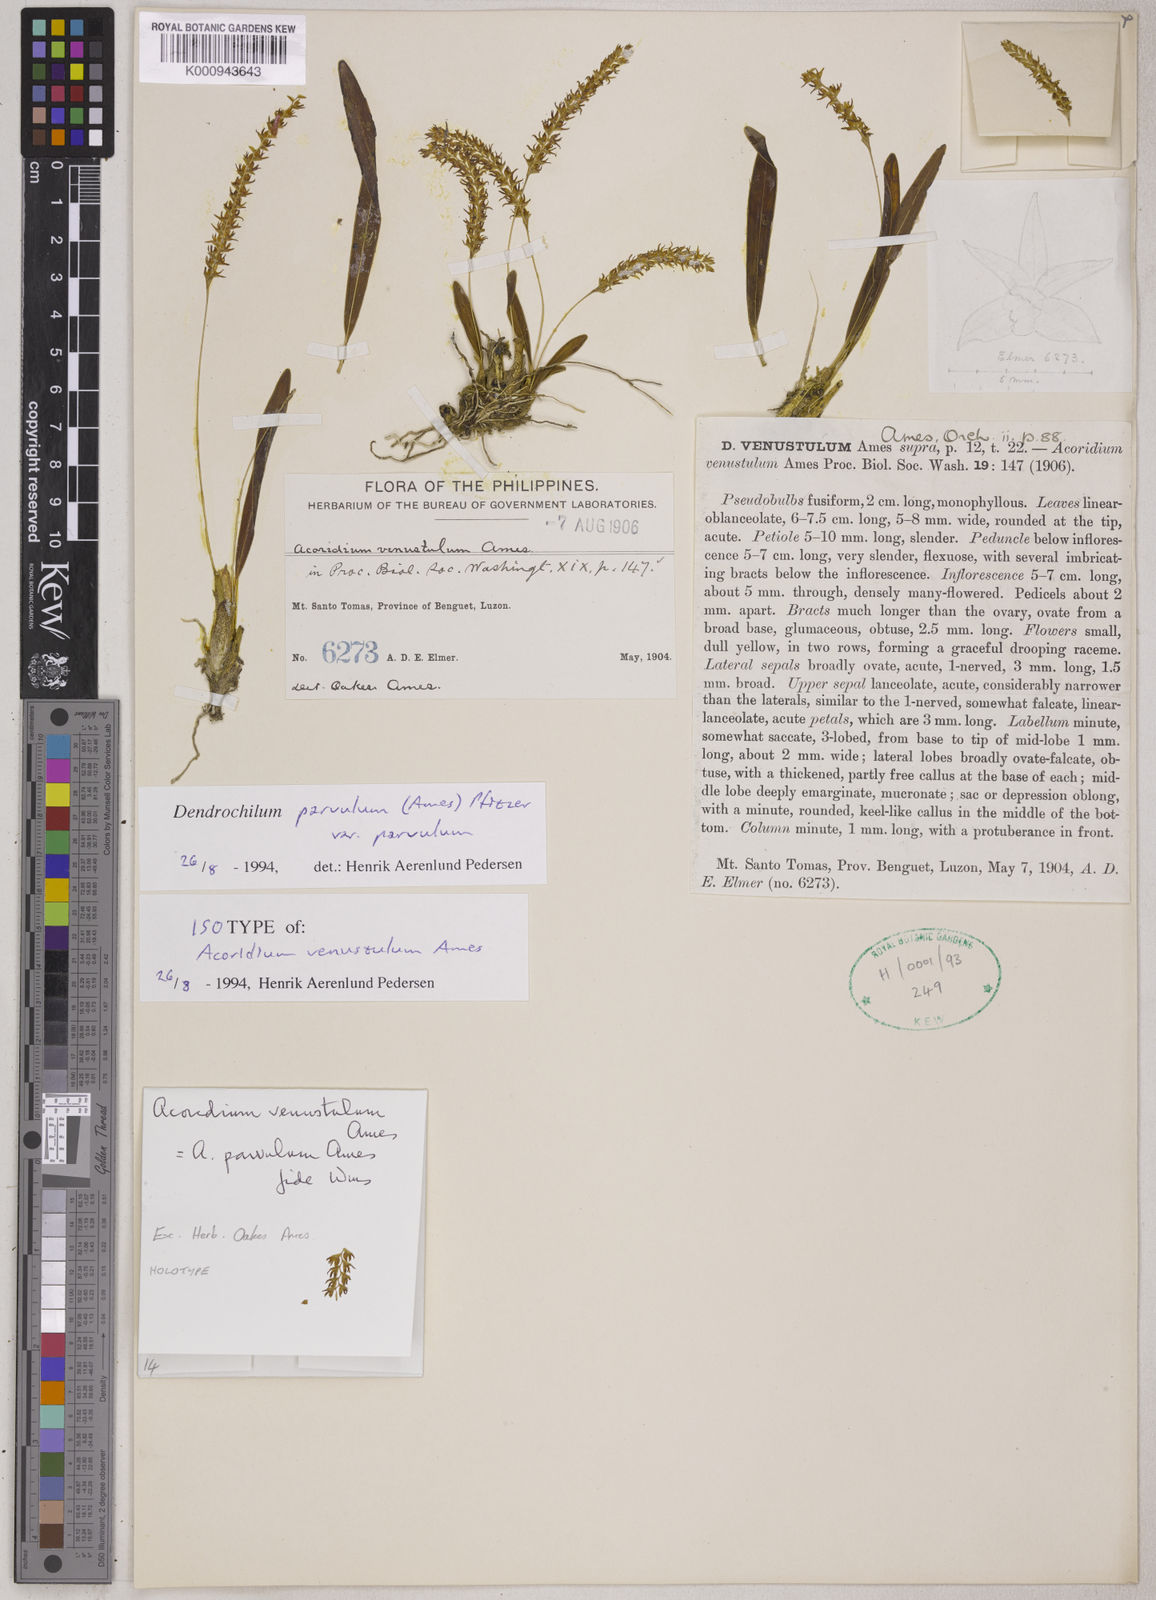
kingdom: Plantae
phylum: Tracheophyta
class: Liliopsida
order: Asparagales
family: Orchidaceae
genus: Coelogyne
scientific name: Coelogyne parvula
